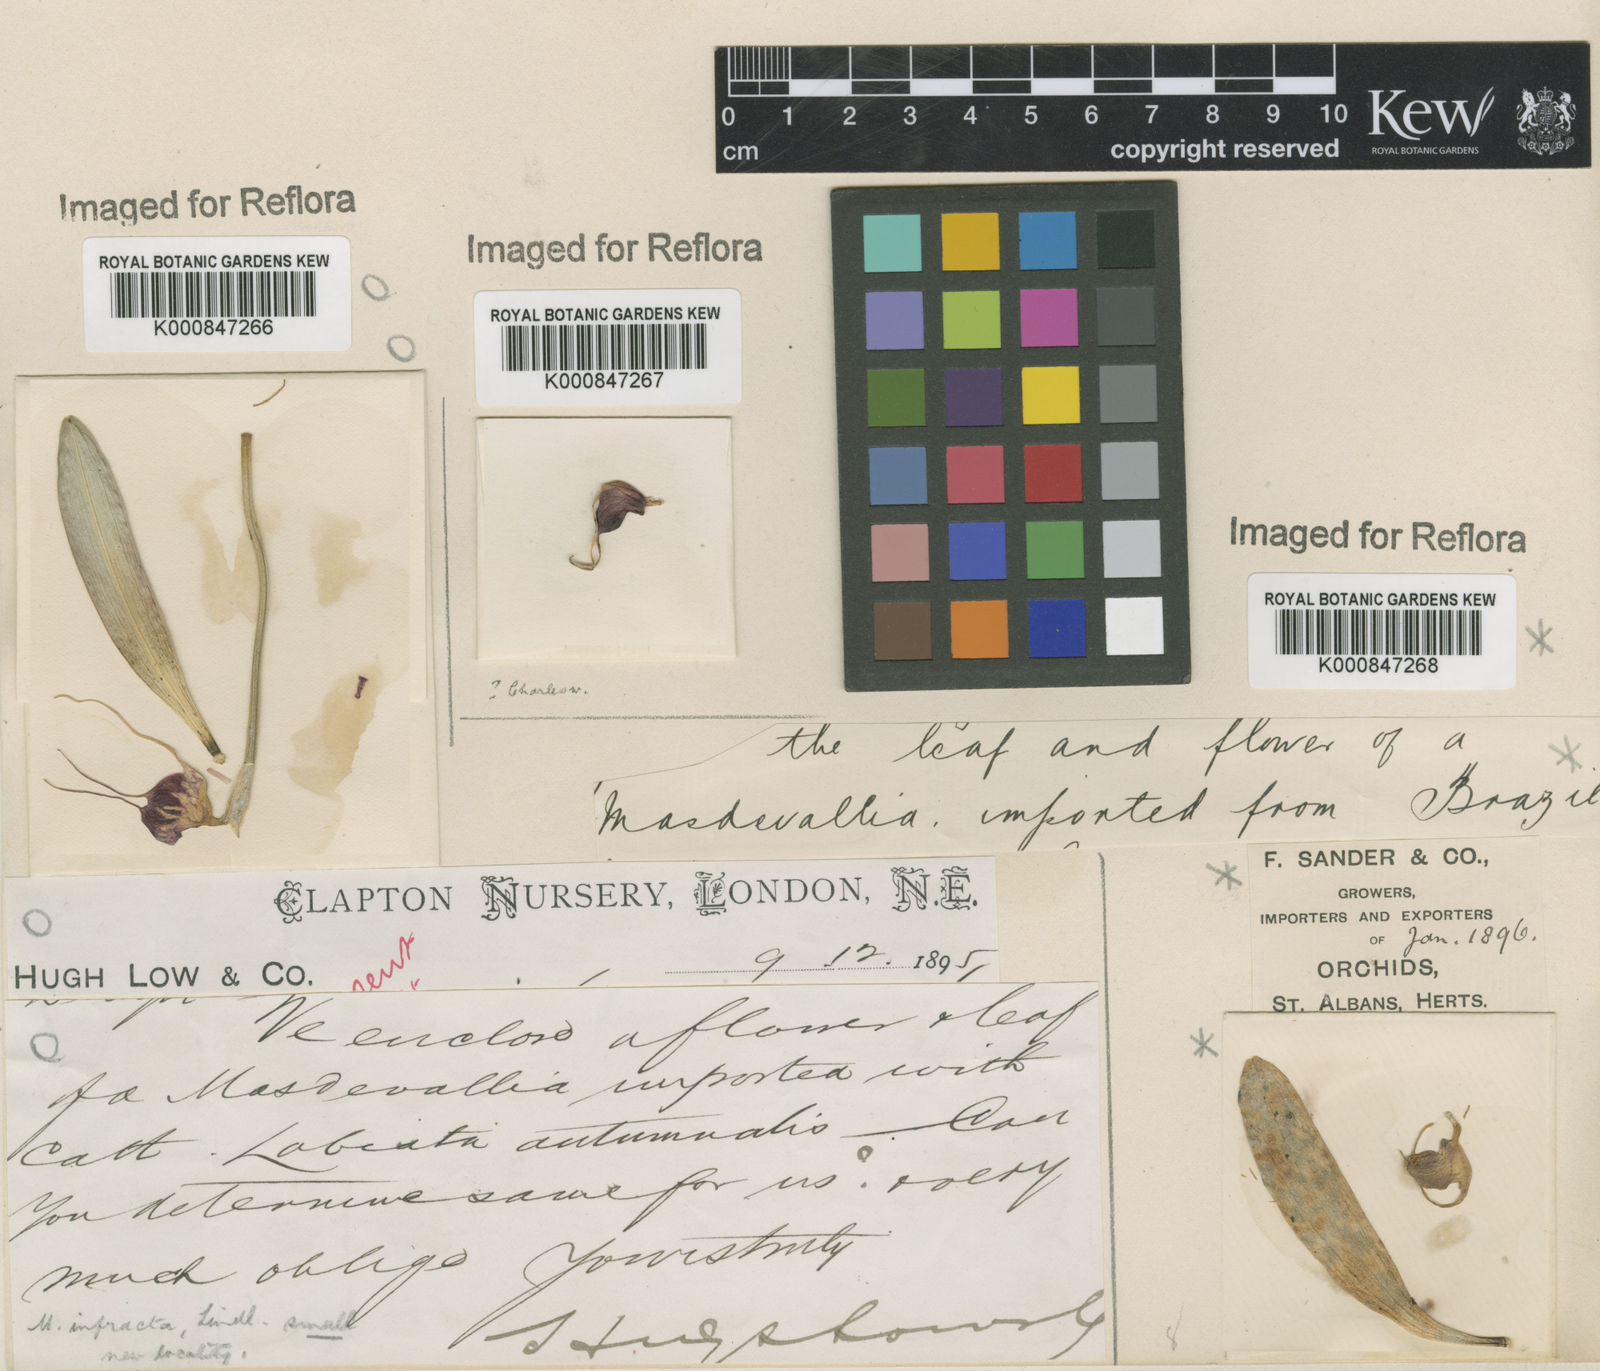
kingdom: Plantae
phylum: Tracheophyta
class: Liliopsida
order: Asparagales
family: Orchidaceae
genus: Masdevallia
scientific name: Masdevallia infracta
